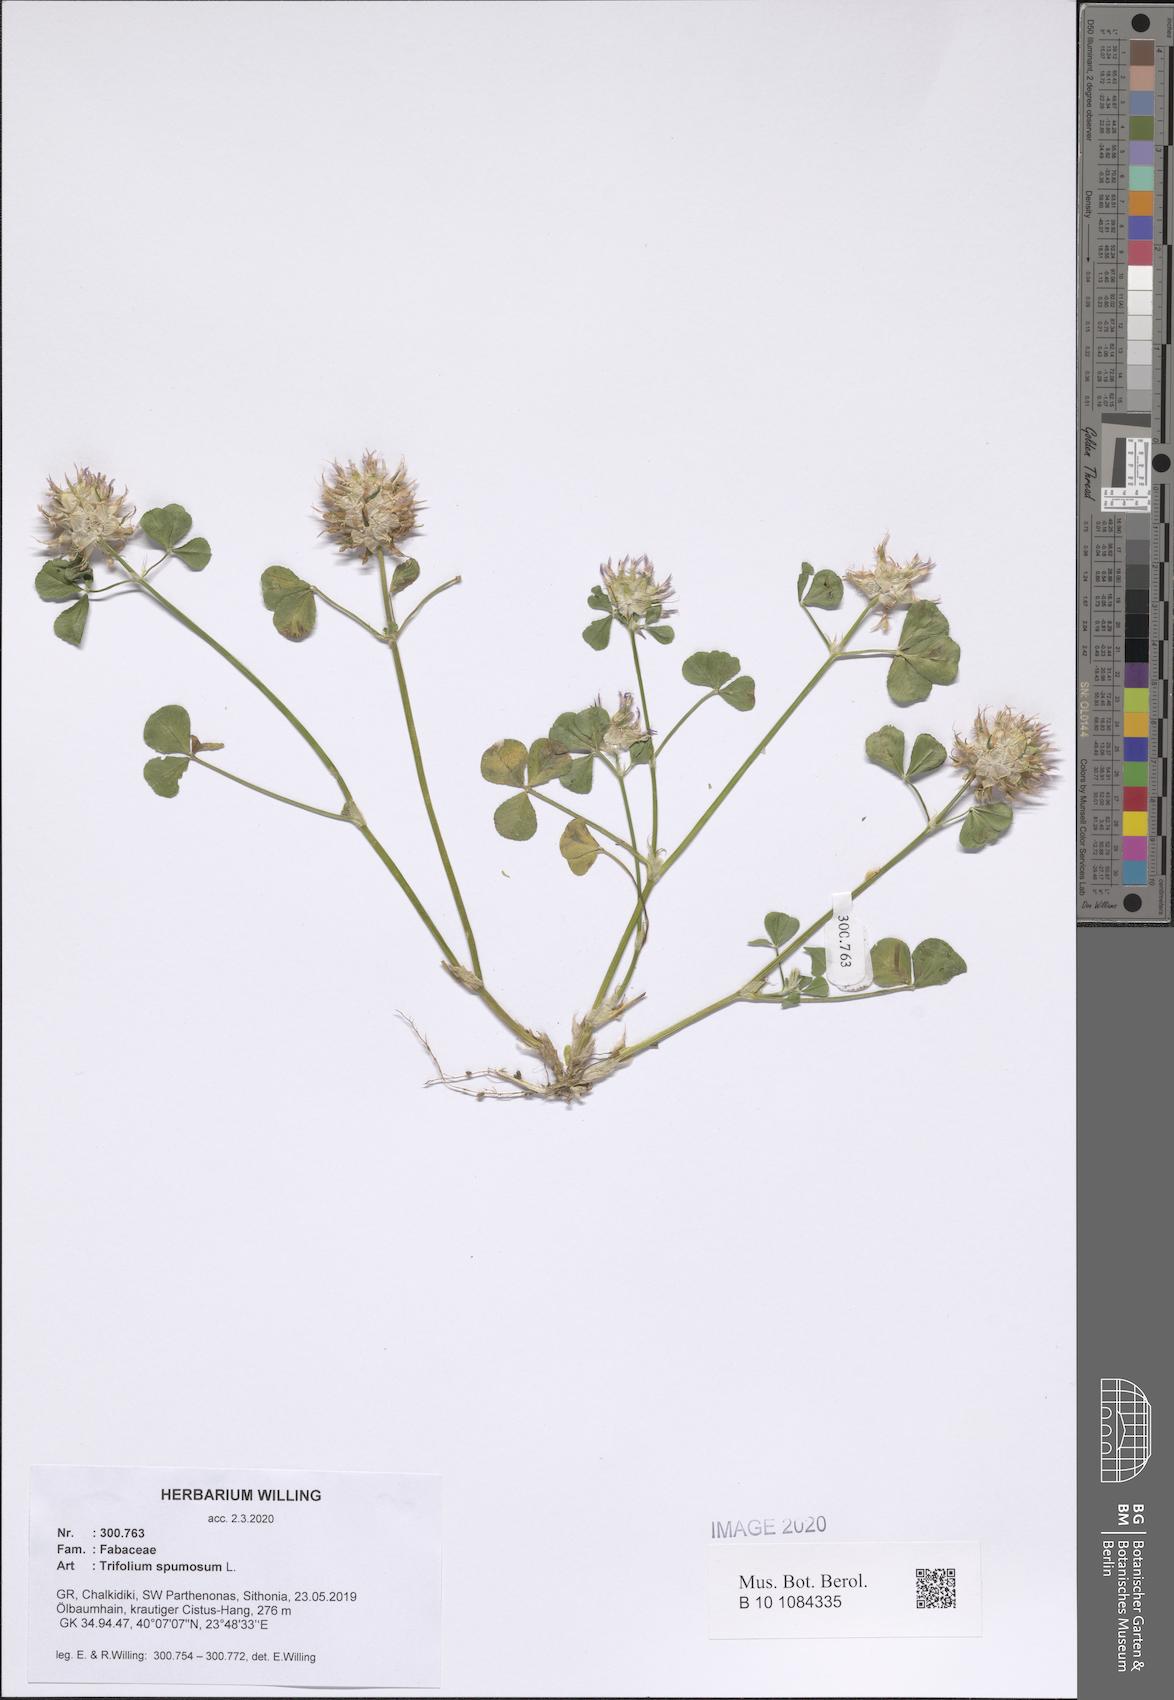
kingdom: Plantae
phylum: Tracheophyta
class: Magnoliopsida
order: Fabales
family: Fabaceae
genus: Trifolium
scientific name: Trifolium spumosum
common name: Mediterranean clover
